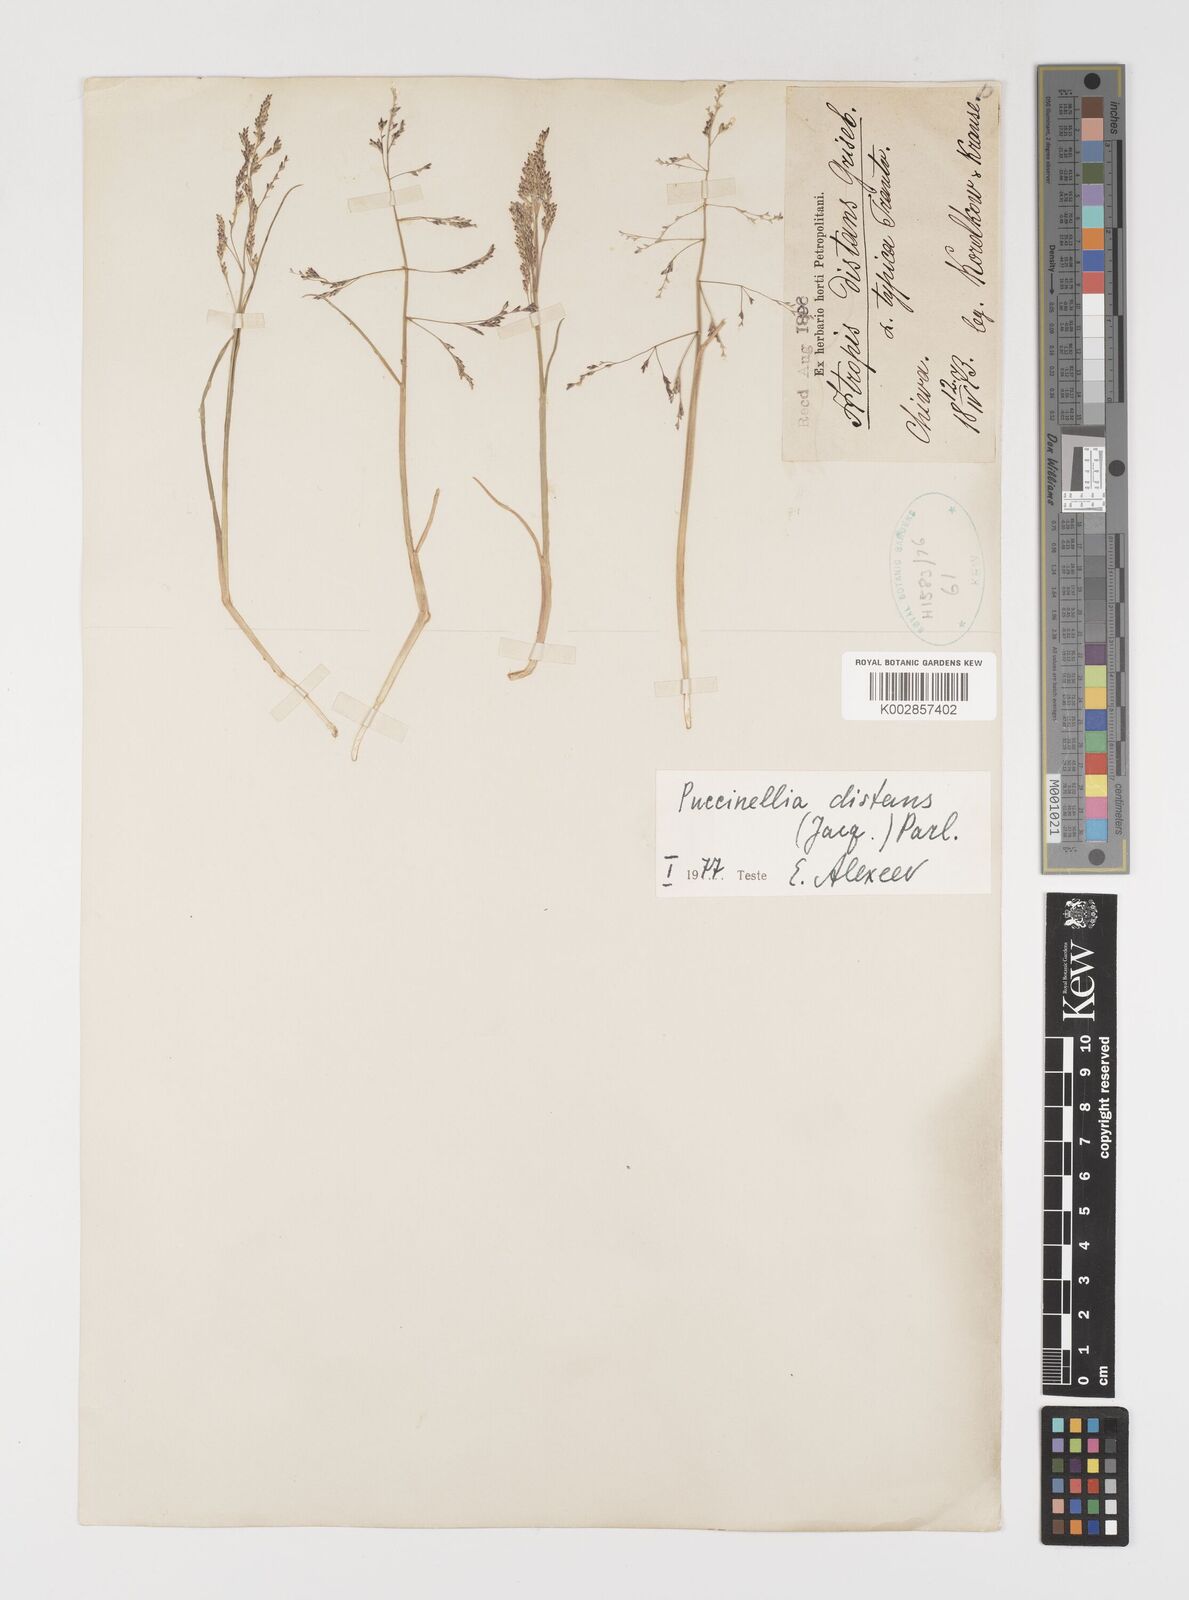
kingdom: Plantae
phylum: Tracheophyta
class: Liliopsida
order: Poales
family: Poaceae
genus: Puccinellia
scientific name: Puccinellia distans
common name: Weeping alkaligrass
